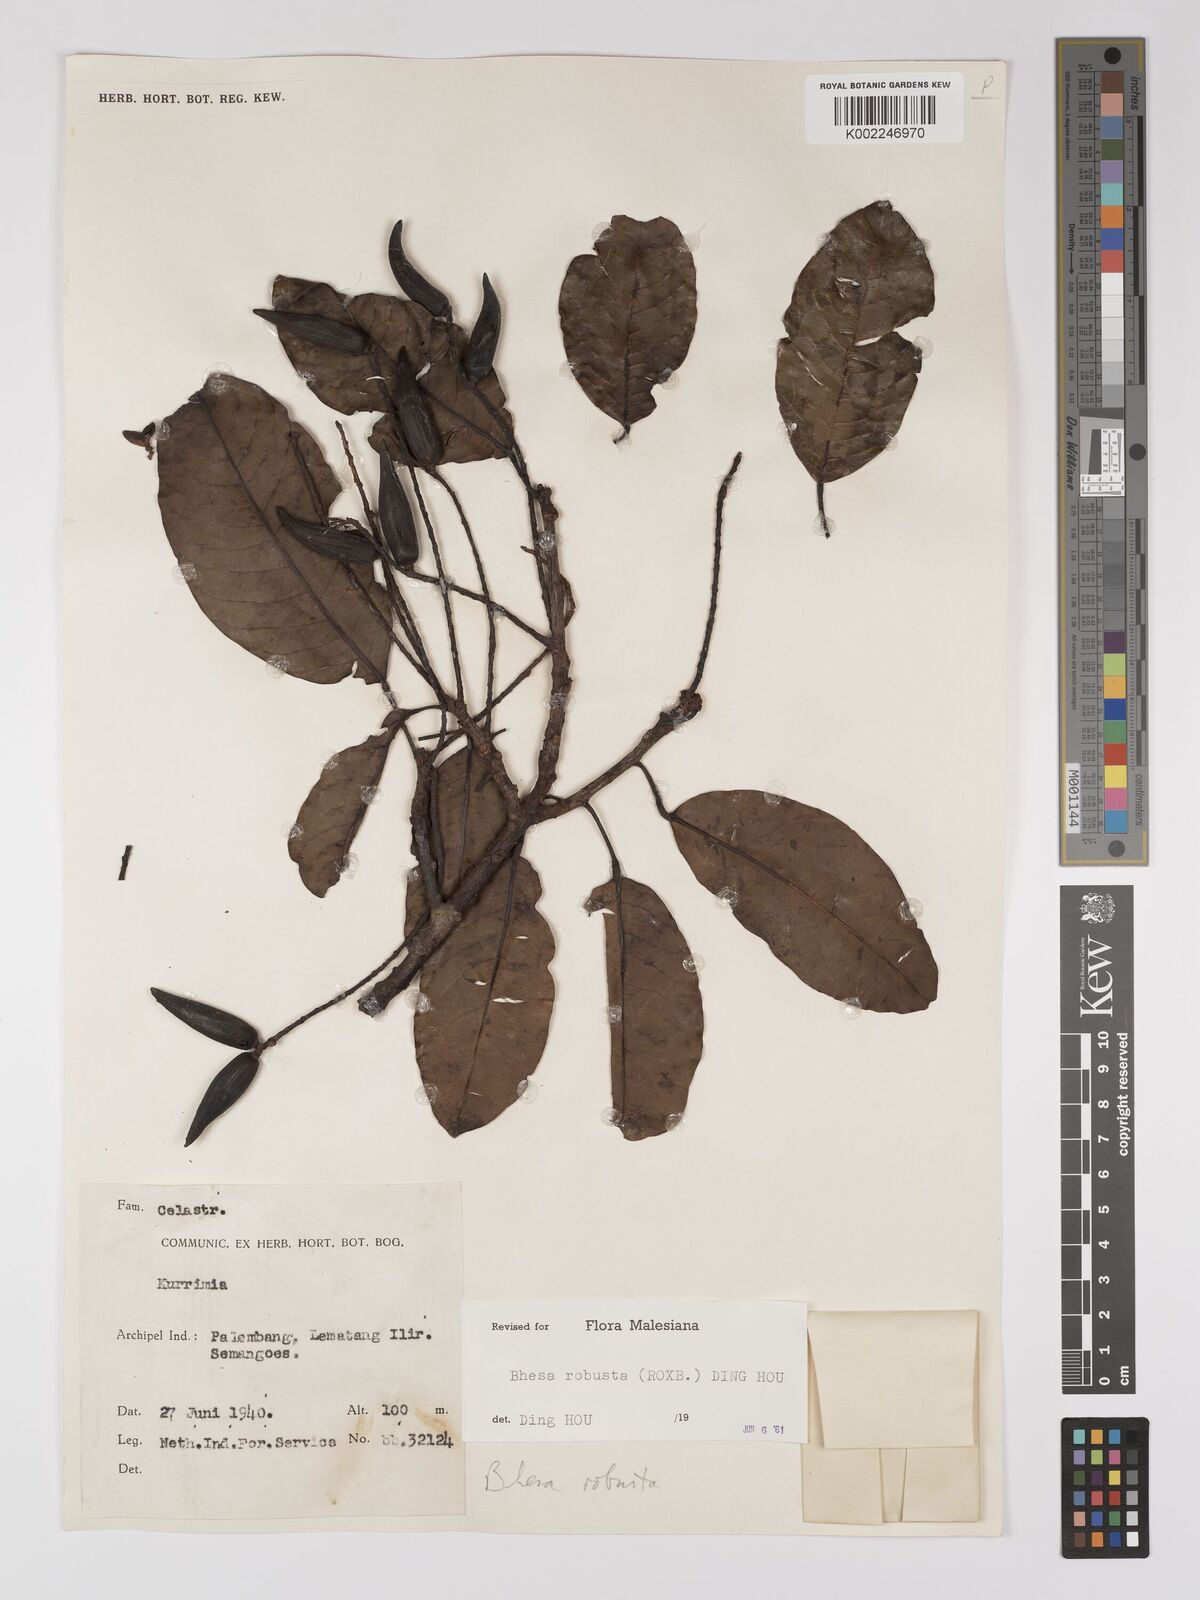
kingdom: Plantae
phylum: Tracheophyta
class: Magnoliopsida
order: Malpighiales
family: Centroplacaceae
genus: Bhesa
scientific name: Bhesa robusta
